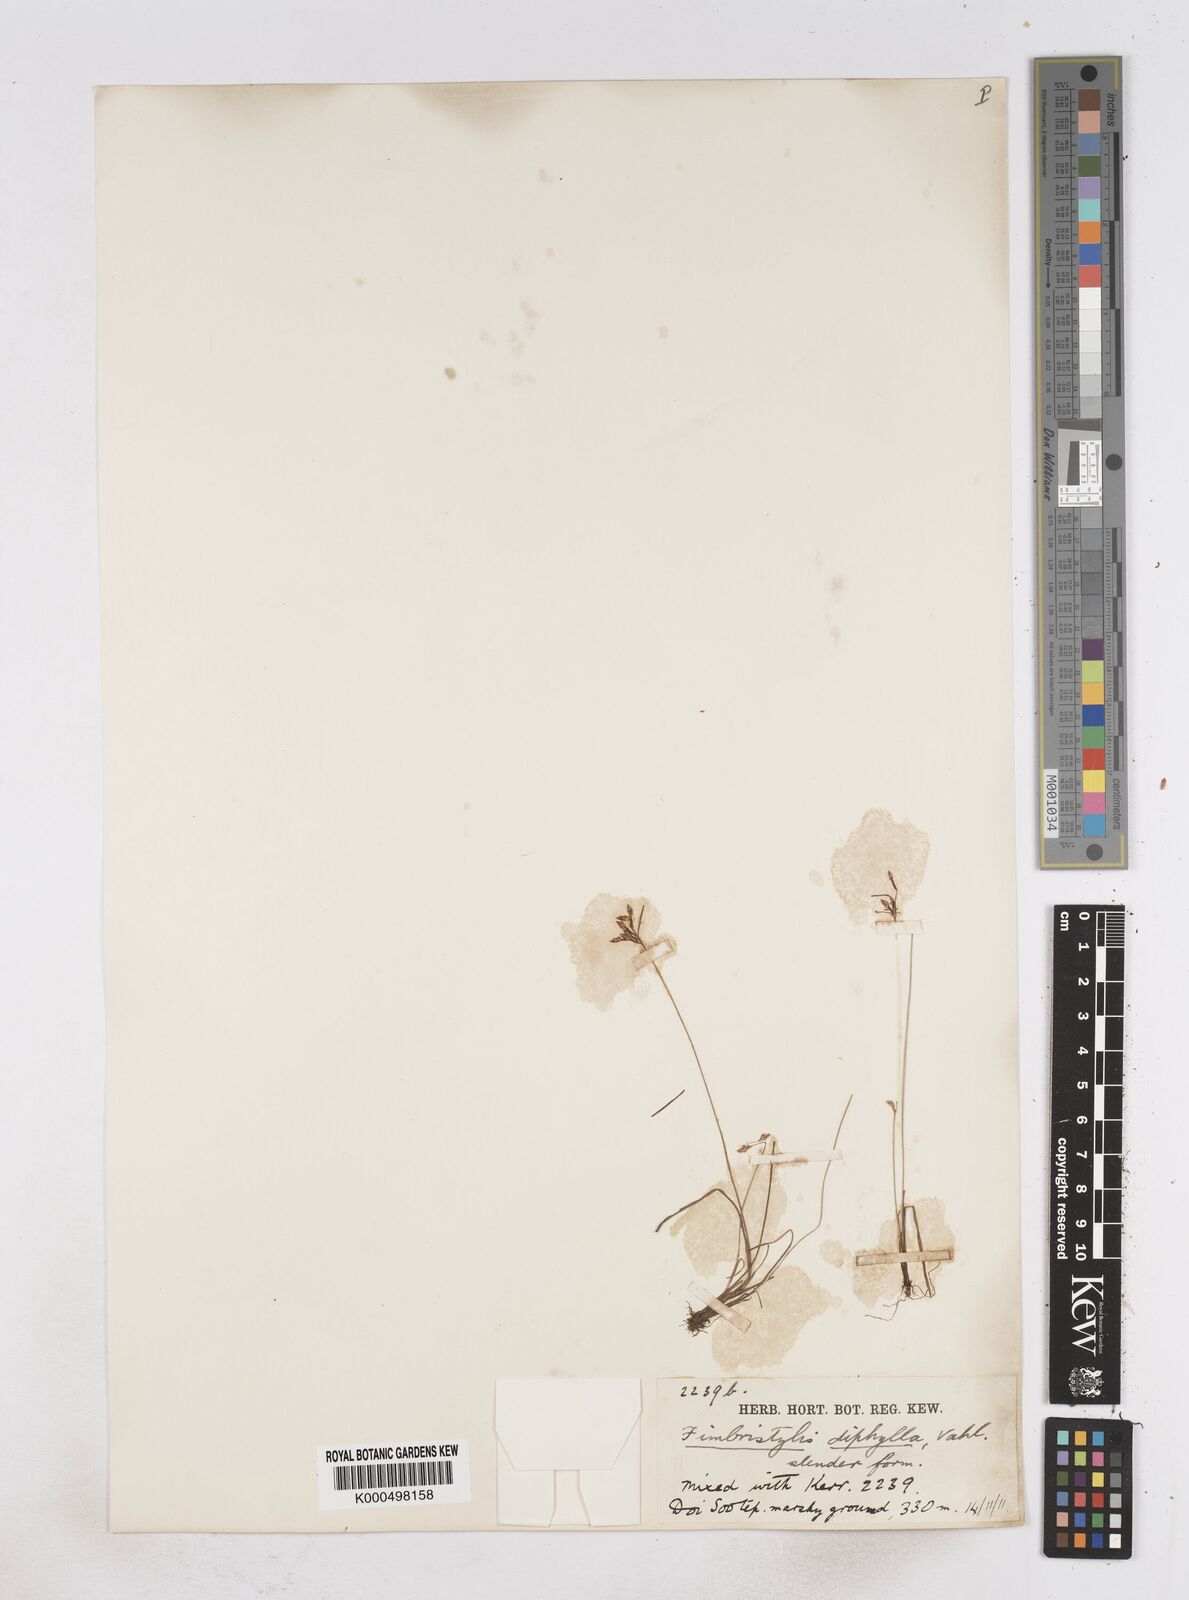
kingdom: Plantae
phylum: Tracheophyta
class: Liliopsida
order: Poales
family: Cyperaceae
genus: Fimbristylis
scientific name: Fimbristylis dichotoma
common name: Forked fimbry
